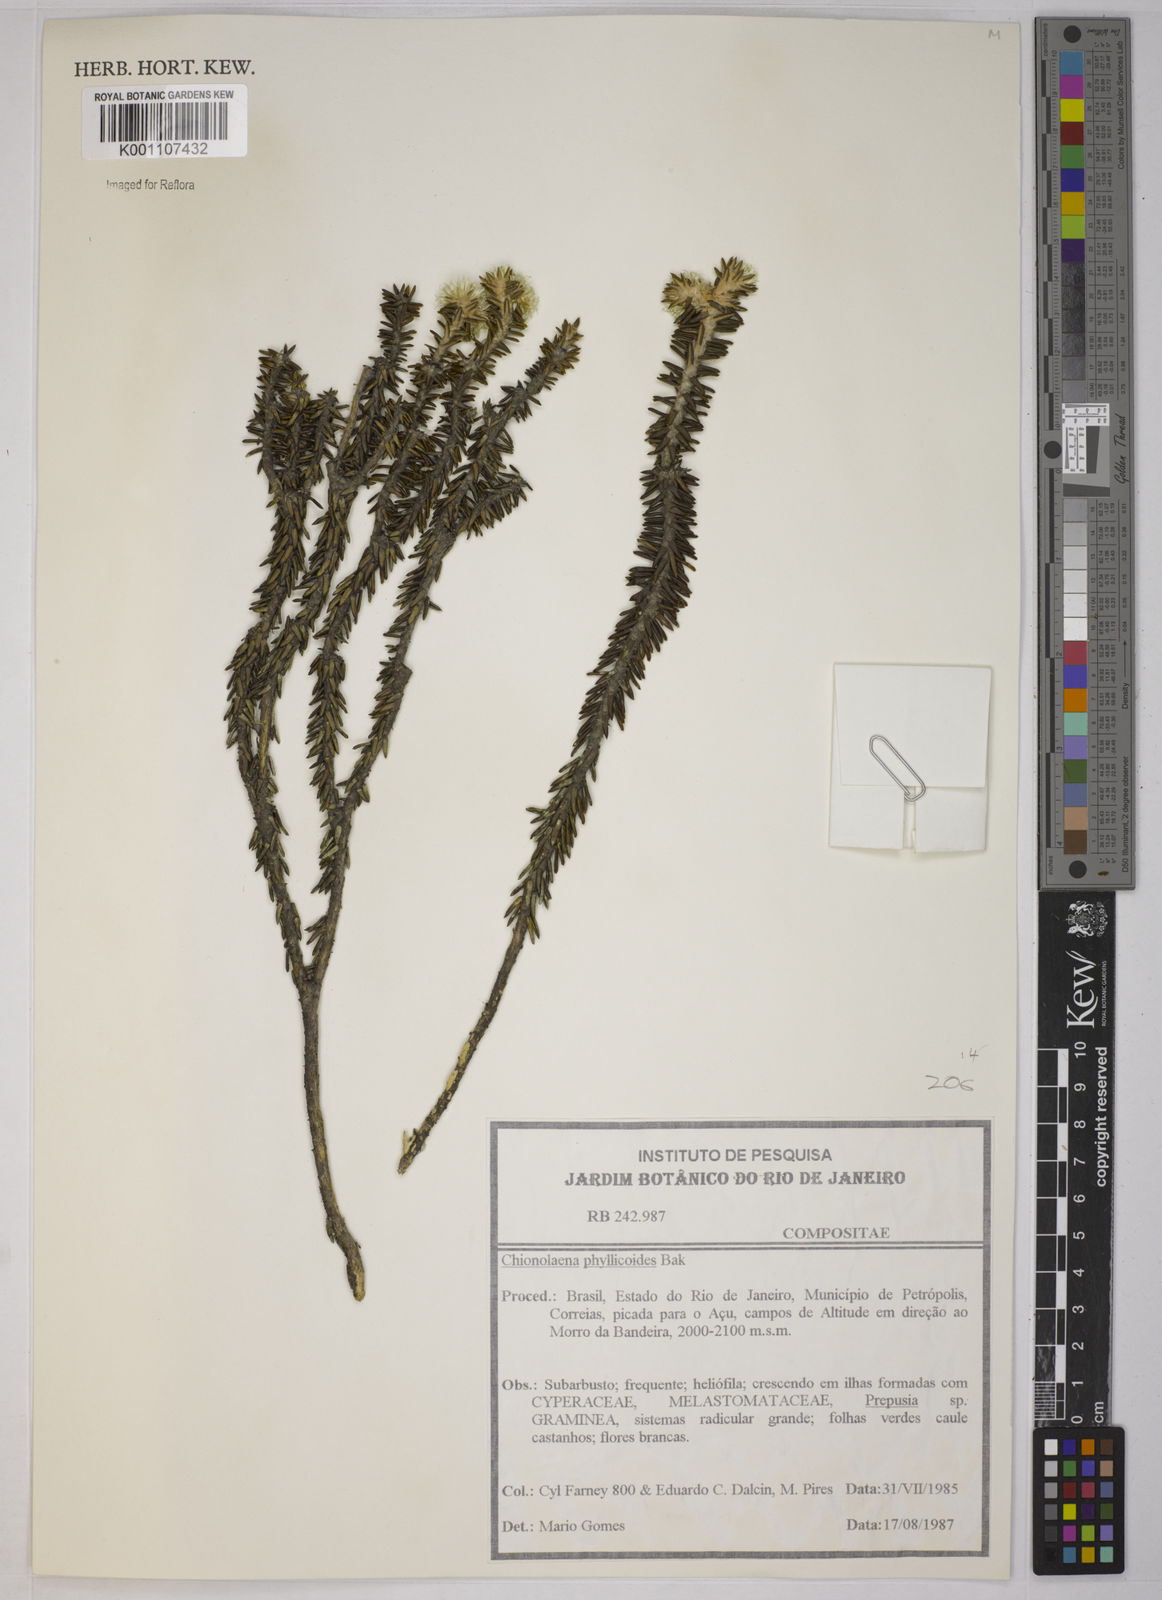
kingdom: Plantae
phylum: Tracheophyta
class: Magnoliopsida
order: Asterales
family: Asteraceae
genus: Chionolaena
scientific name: Chionolaena phylicoides
